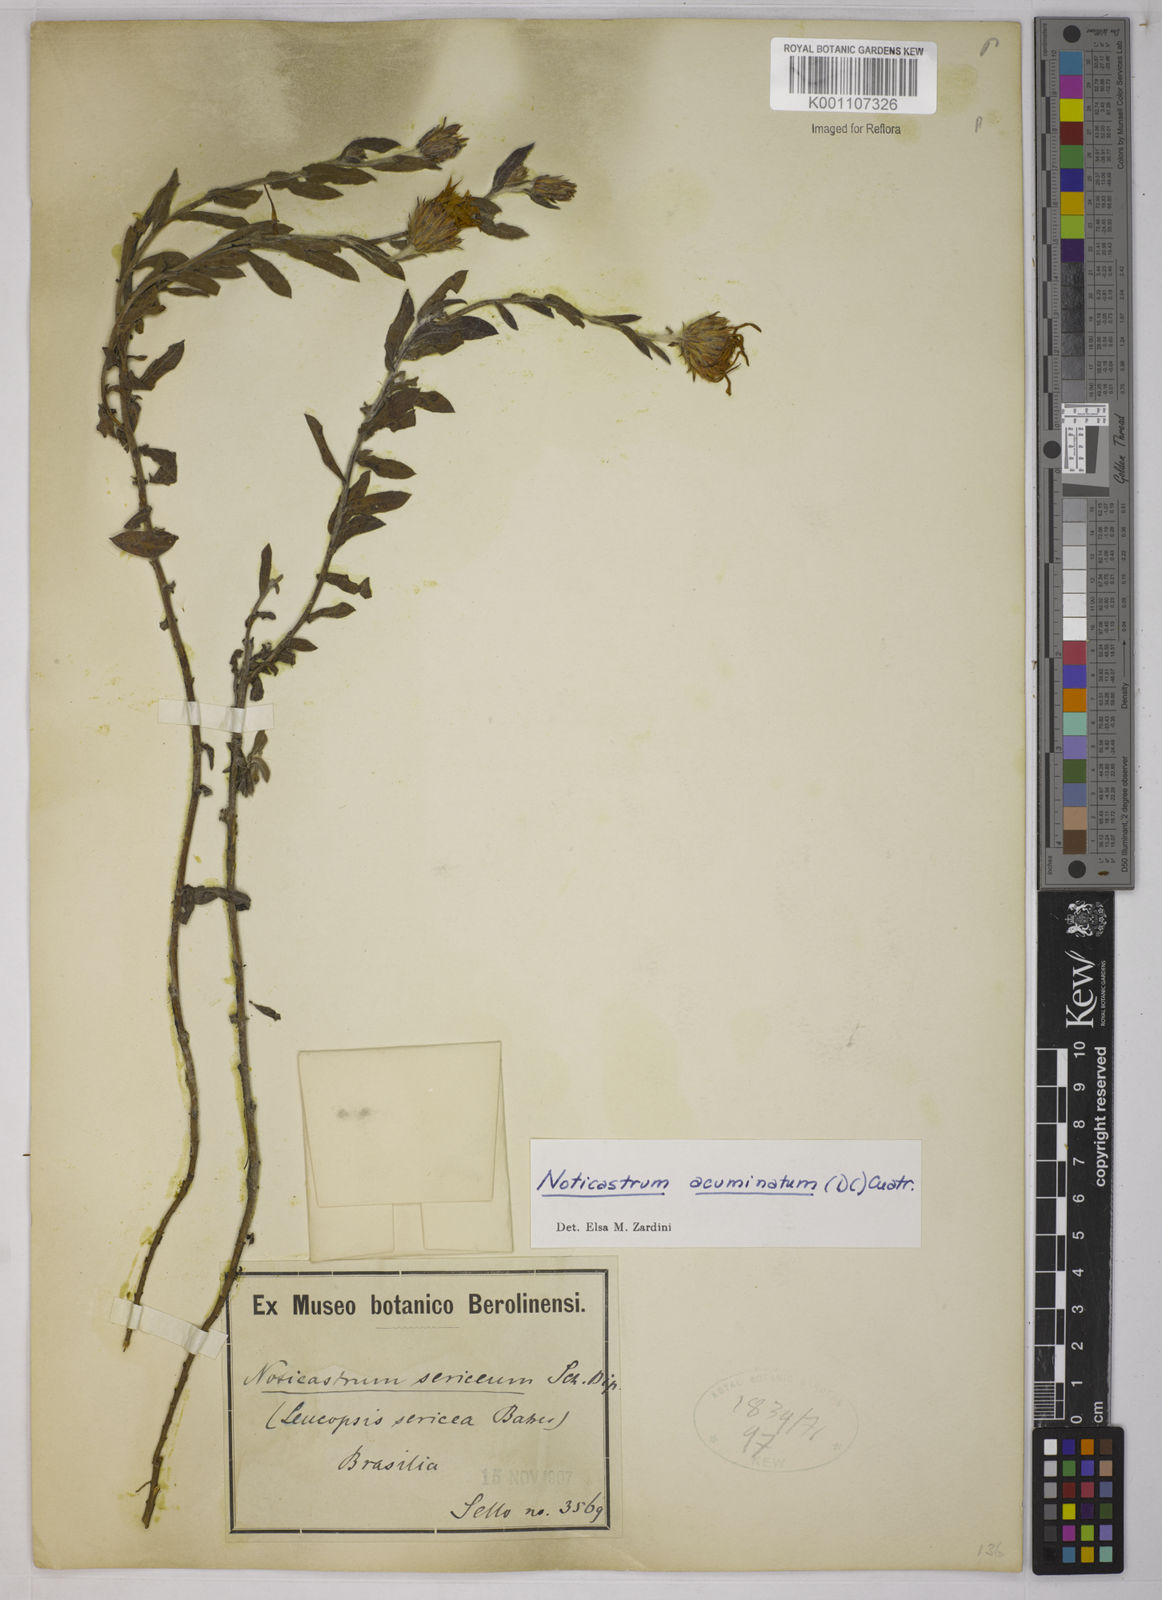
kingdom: Plantae
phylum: Tracheophyta
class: Magnoliopsida
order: Asterales
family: Asteraceae
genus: Noticastrum
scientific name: Noticastrum diffusum
